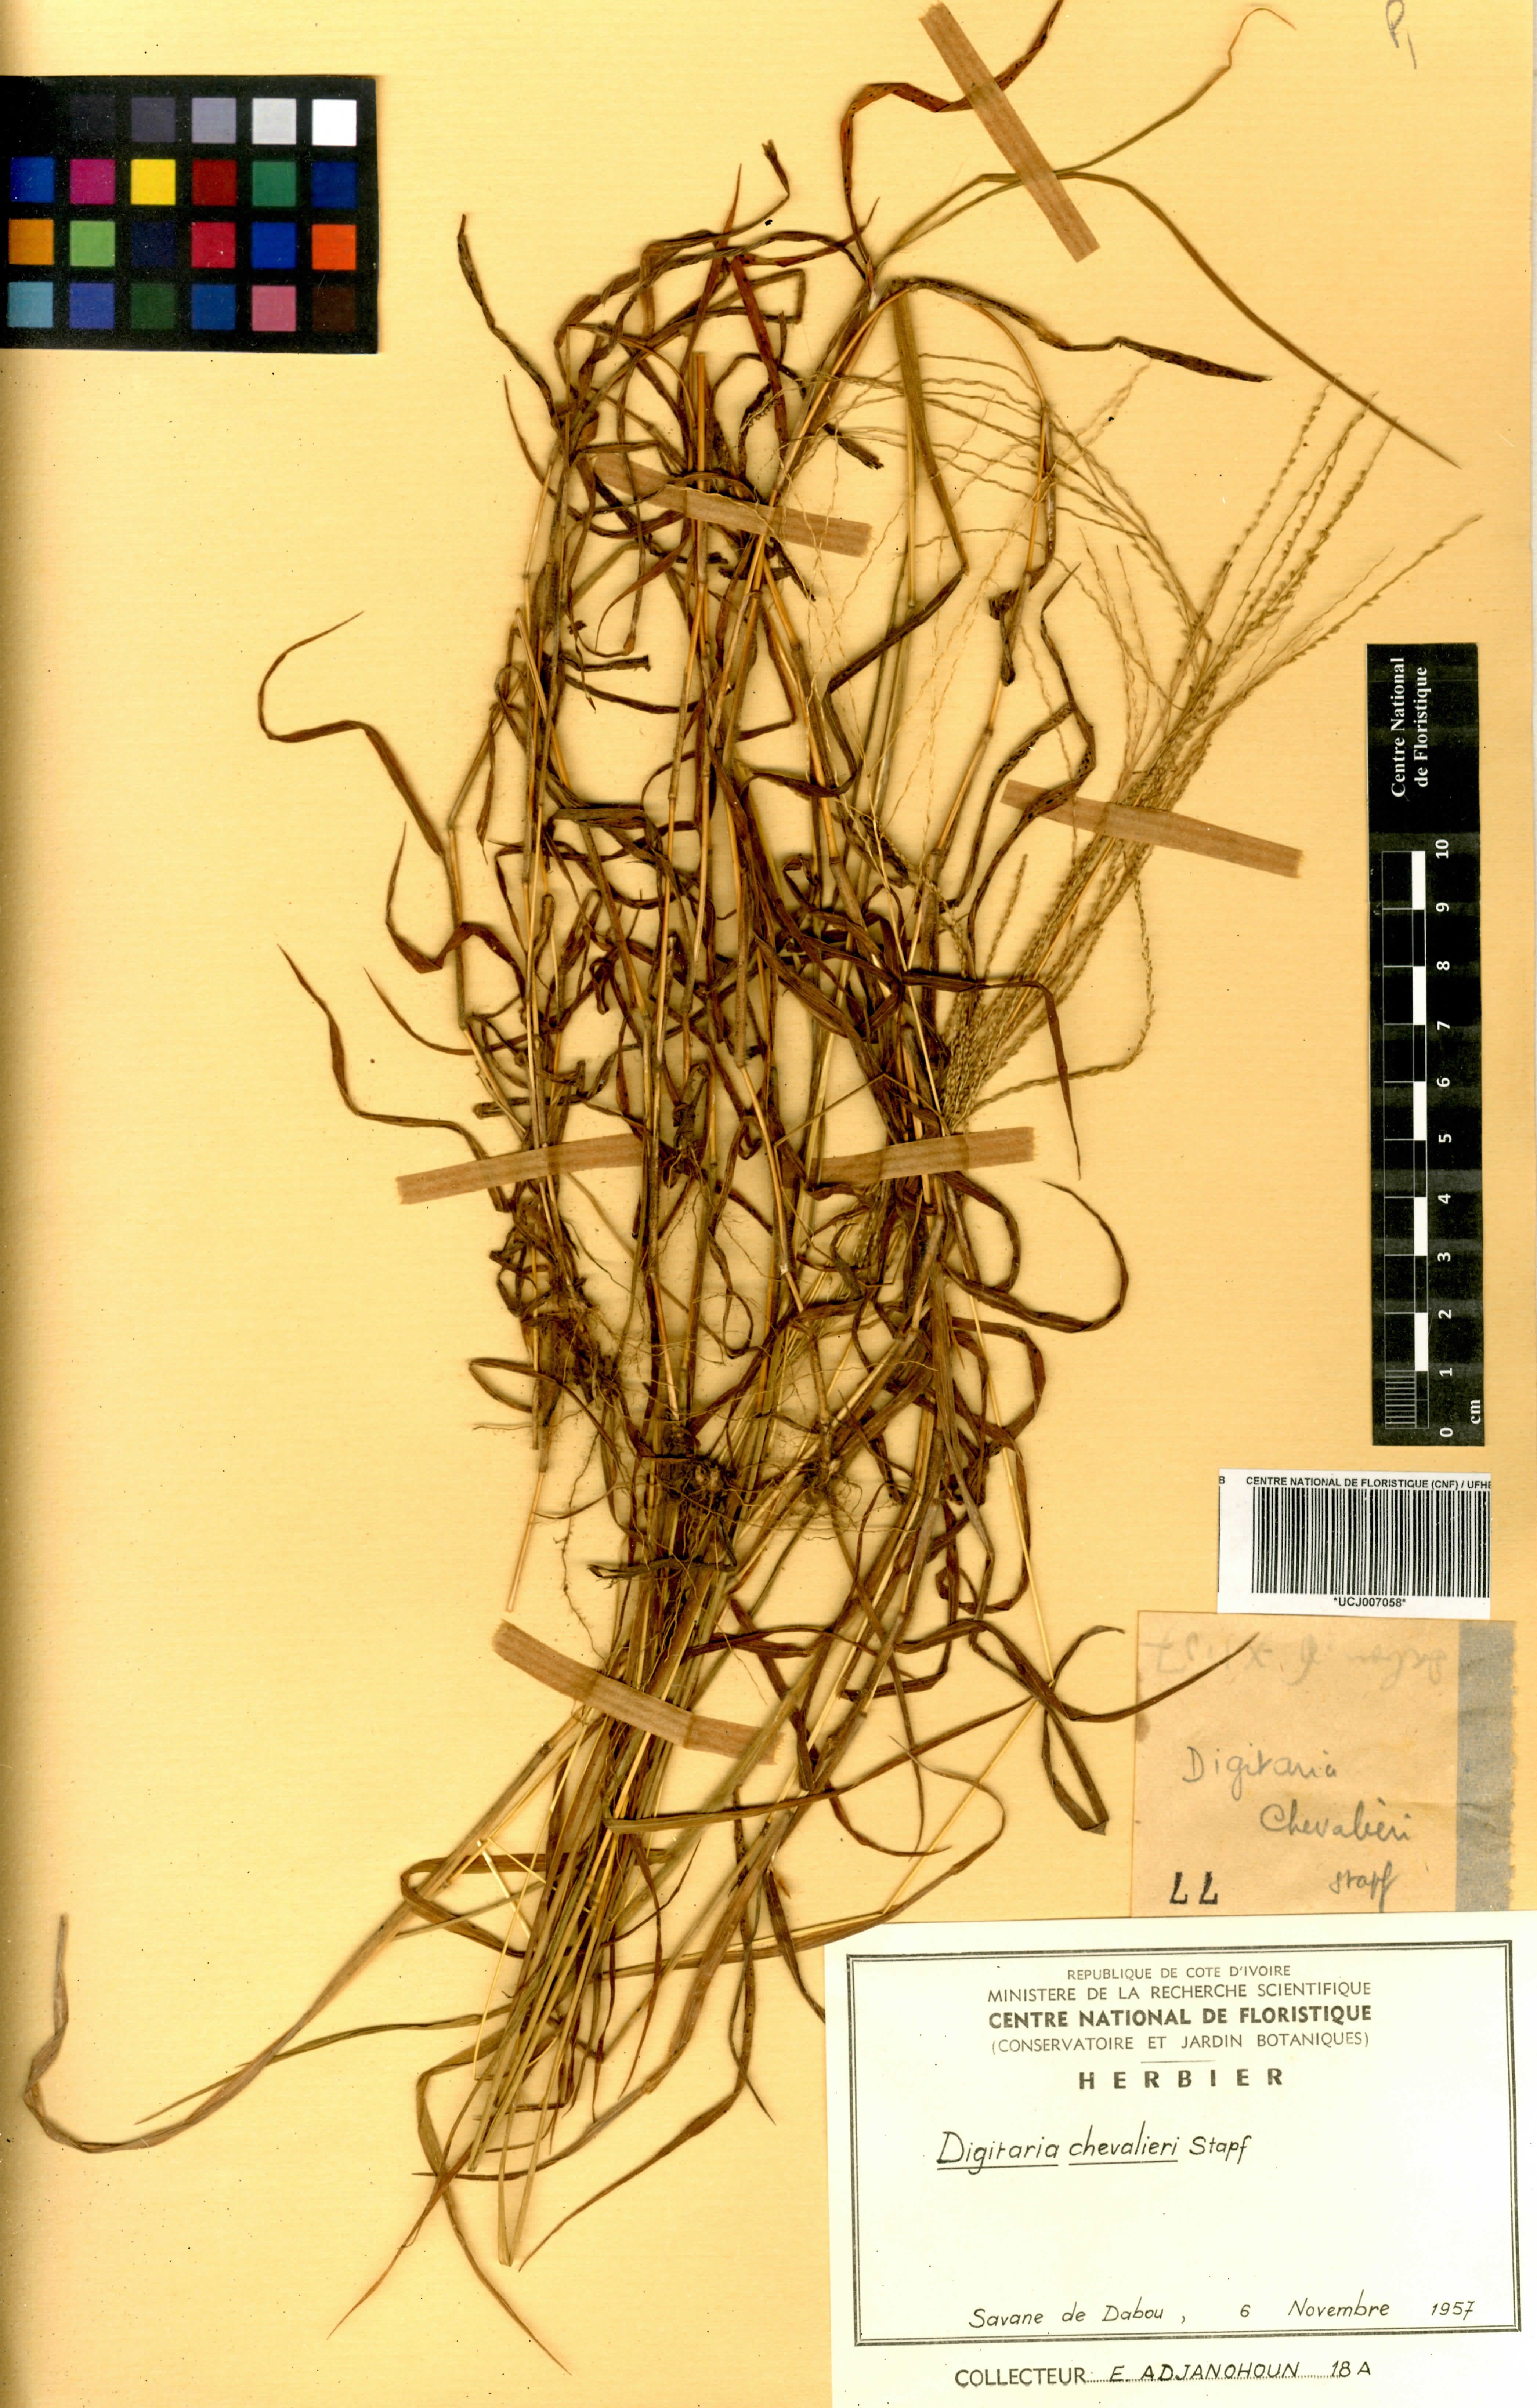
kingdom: Plantae
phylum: Tracheophyta
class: Liliopsida
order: Poales
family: Poaceae
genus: Digitaria
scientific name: Digitaria leptorhachis
